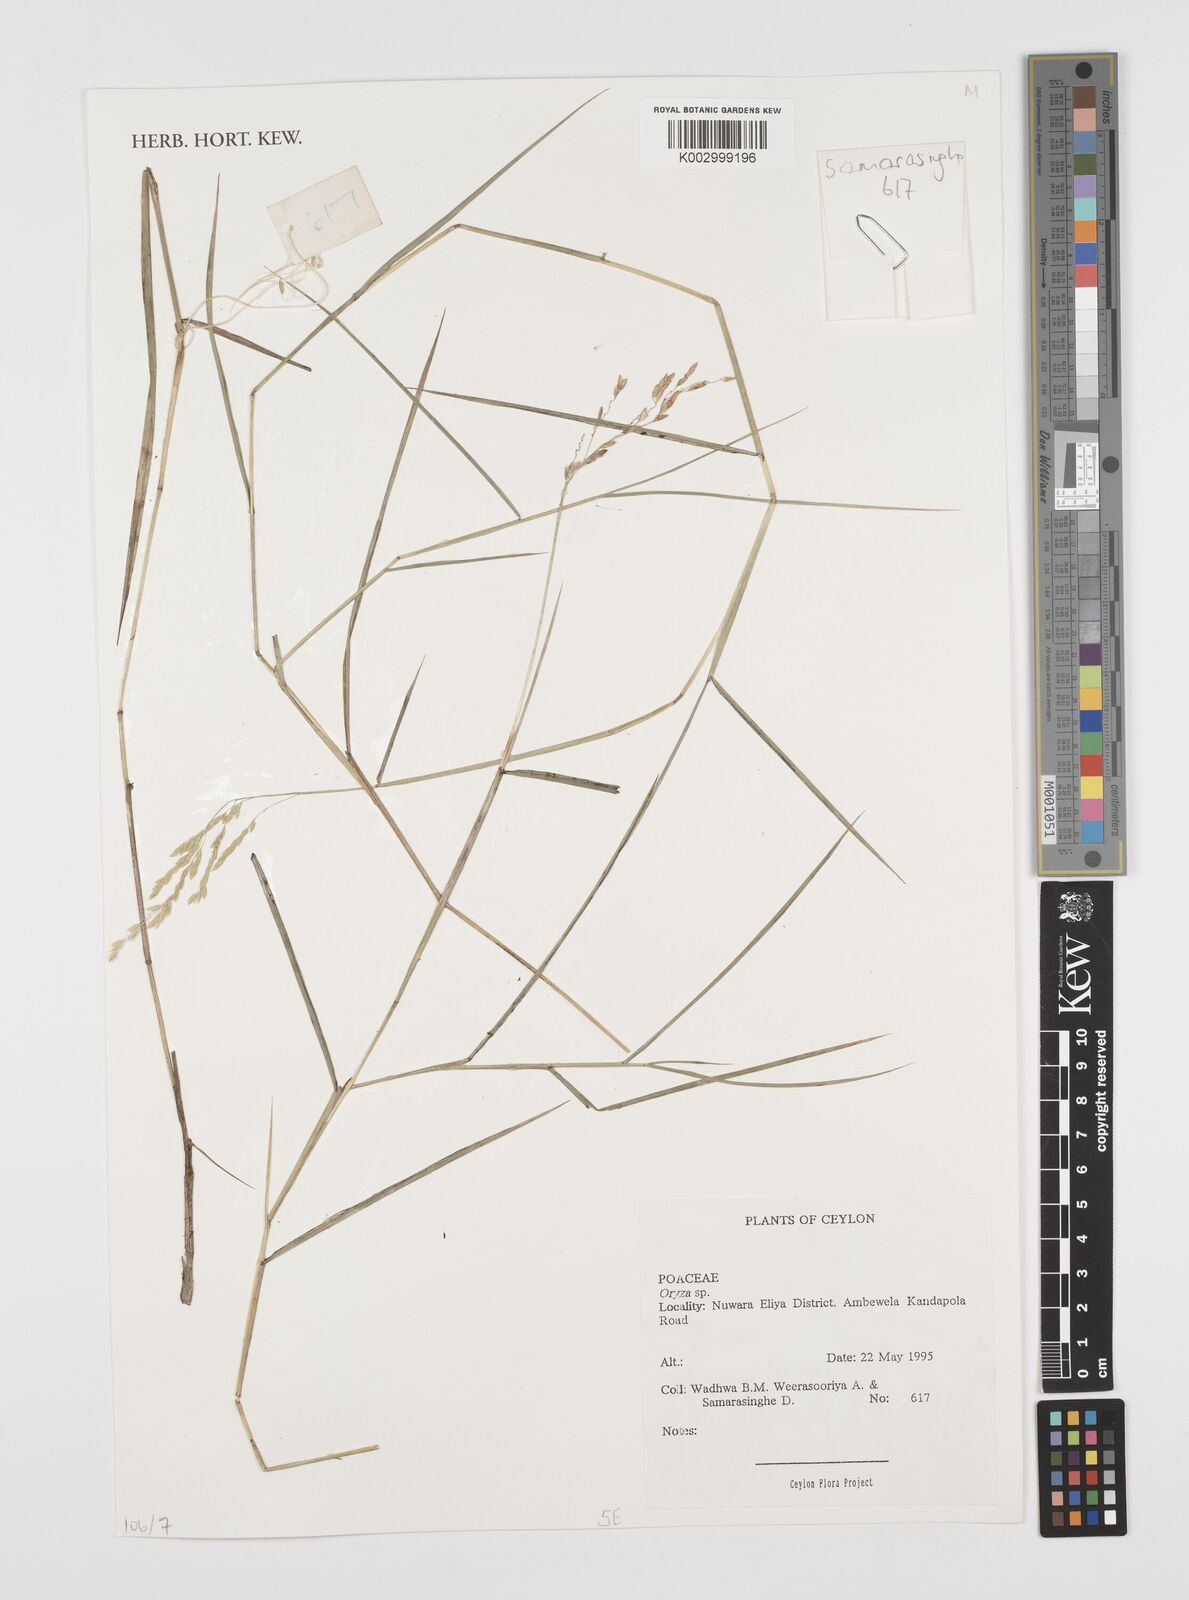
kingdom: Plantae
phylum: Tracheophyta
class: Liliopsida
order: Poales
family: Poaceae
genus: Oryza
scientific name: Oryza
